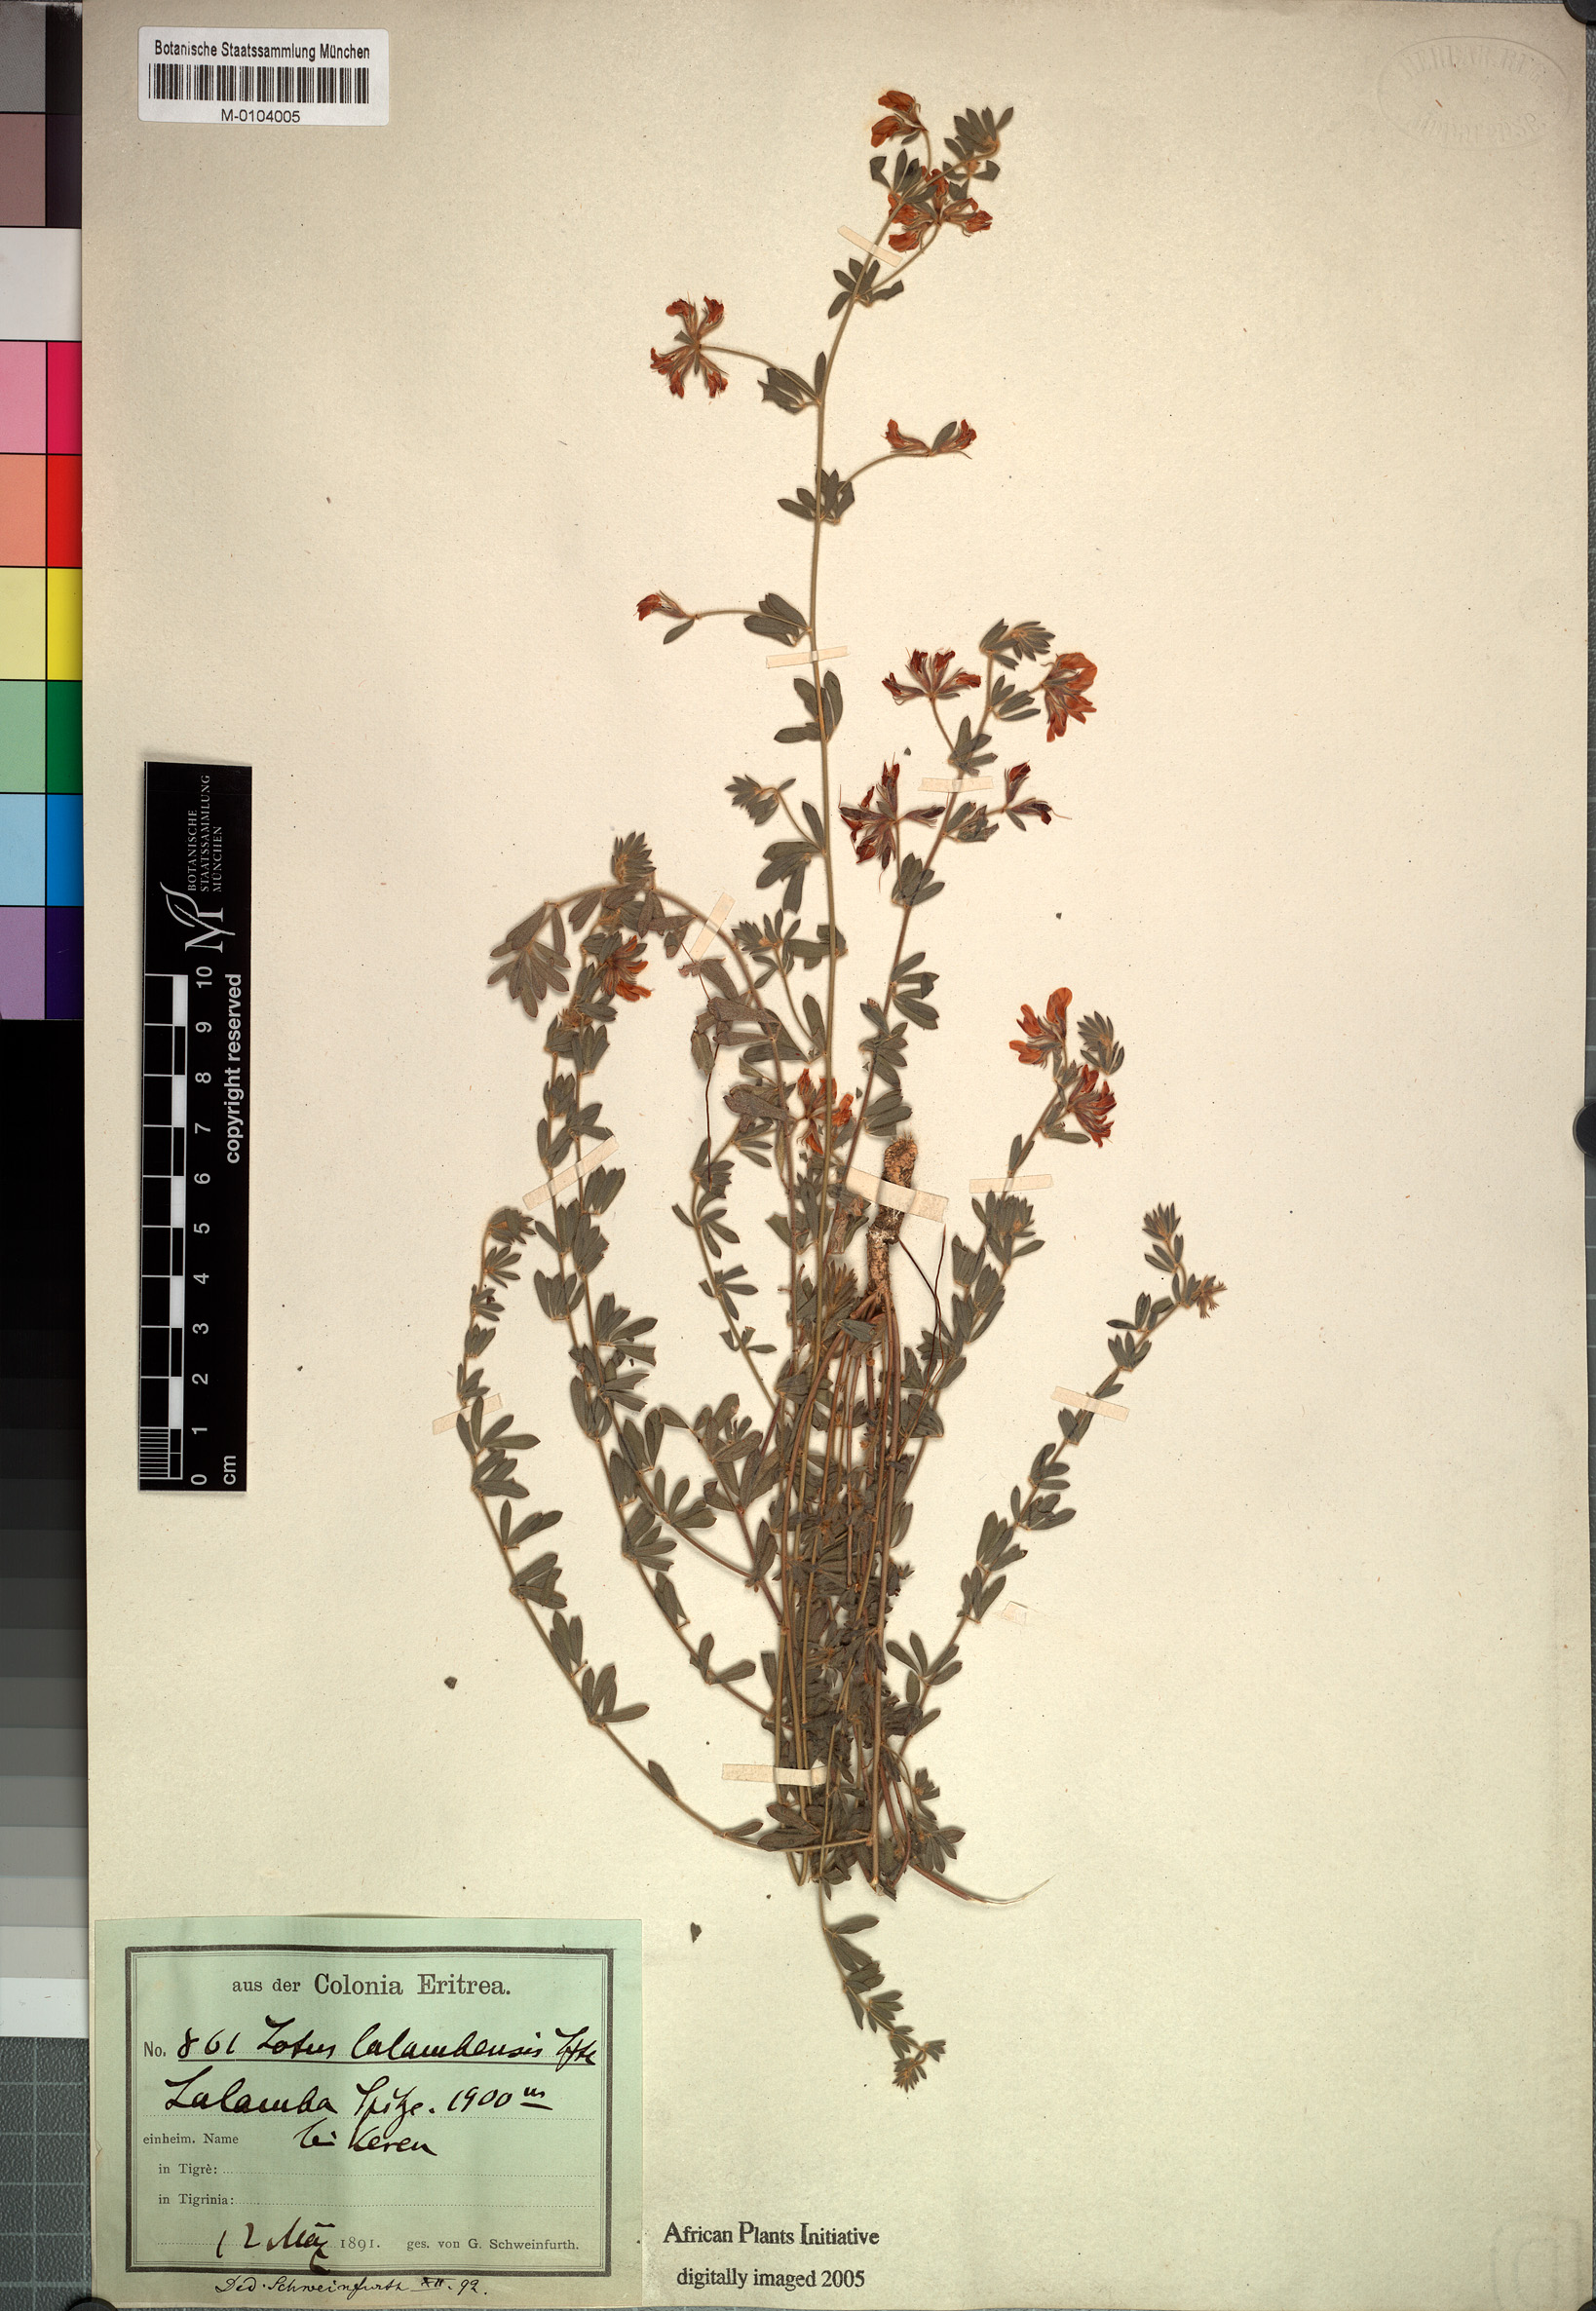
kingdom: Plantae
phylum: Tracheophyta
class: Magnoliopsida
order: Fabales
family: Fabaceae
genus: Lotus
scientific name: Lotus lalambensis
